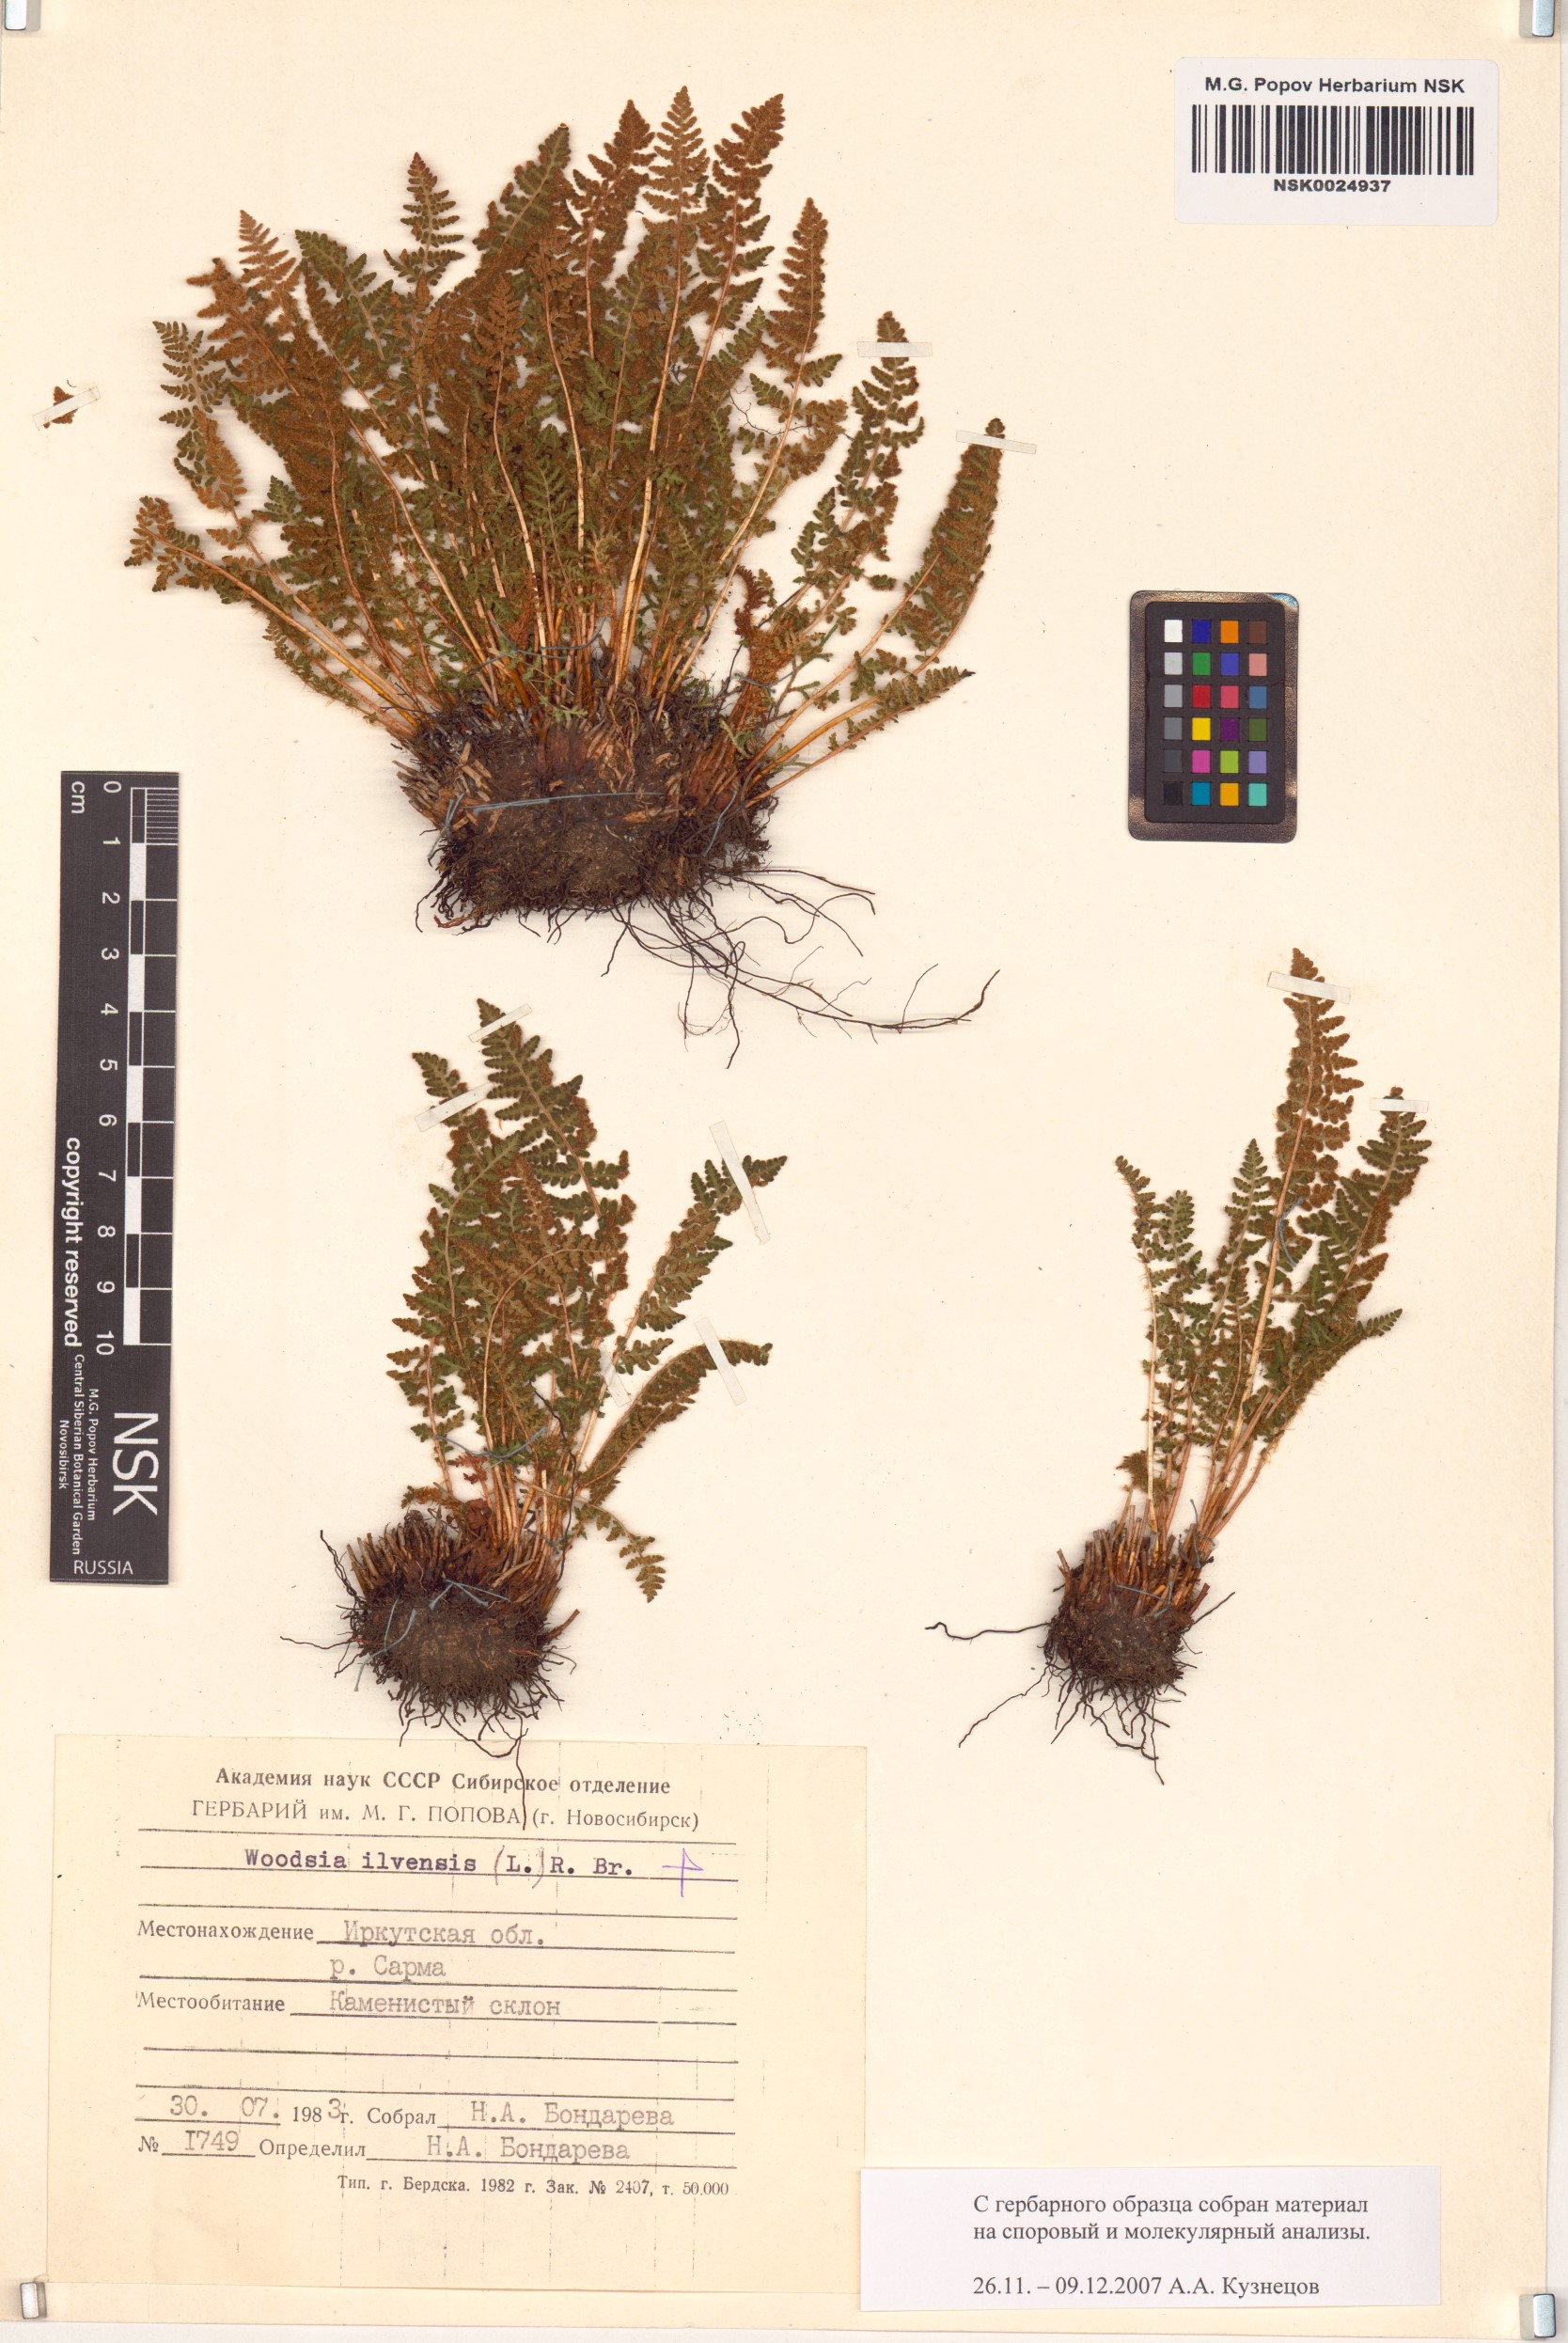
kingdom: Plantae
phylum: Tracheophyta
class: Polypodiopsida
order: Polypodiales
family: Woodsiaceae
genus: Woodsia
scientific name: Woodsia ilvensis
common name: Fragrant woodsia
